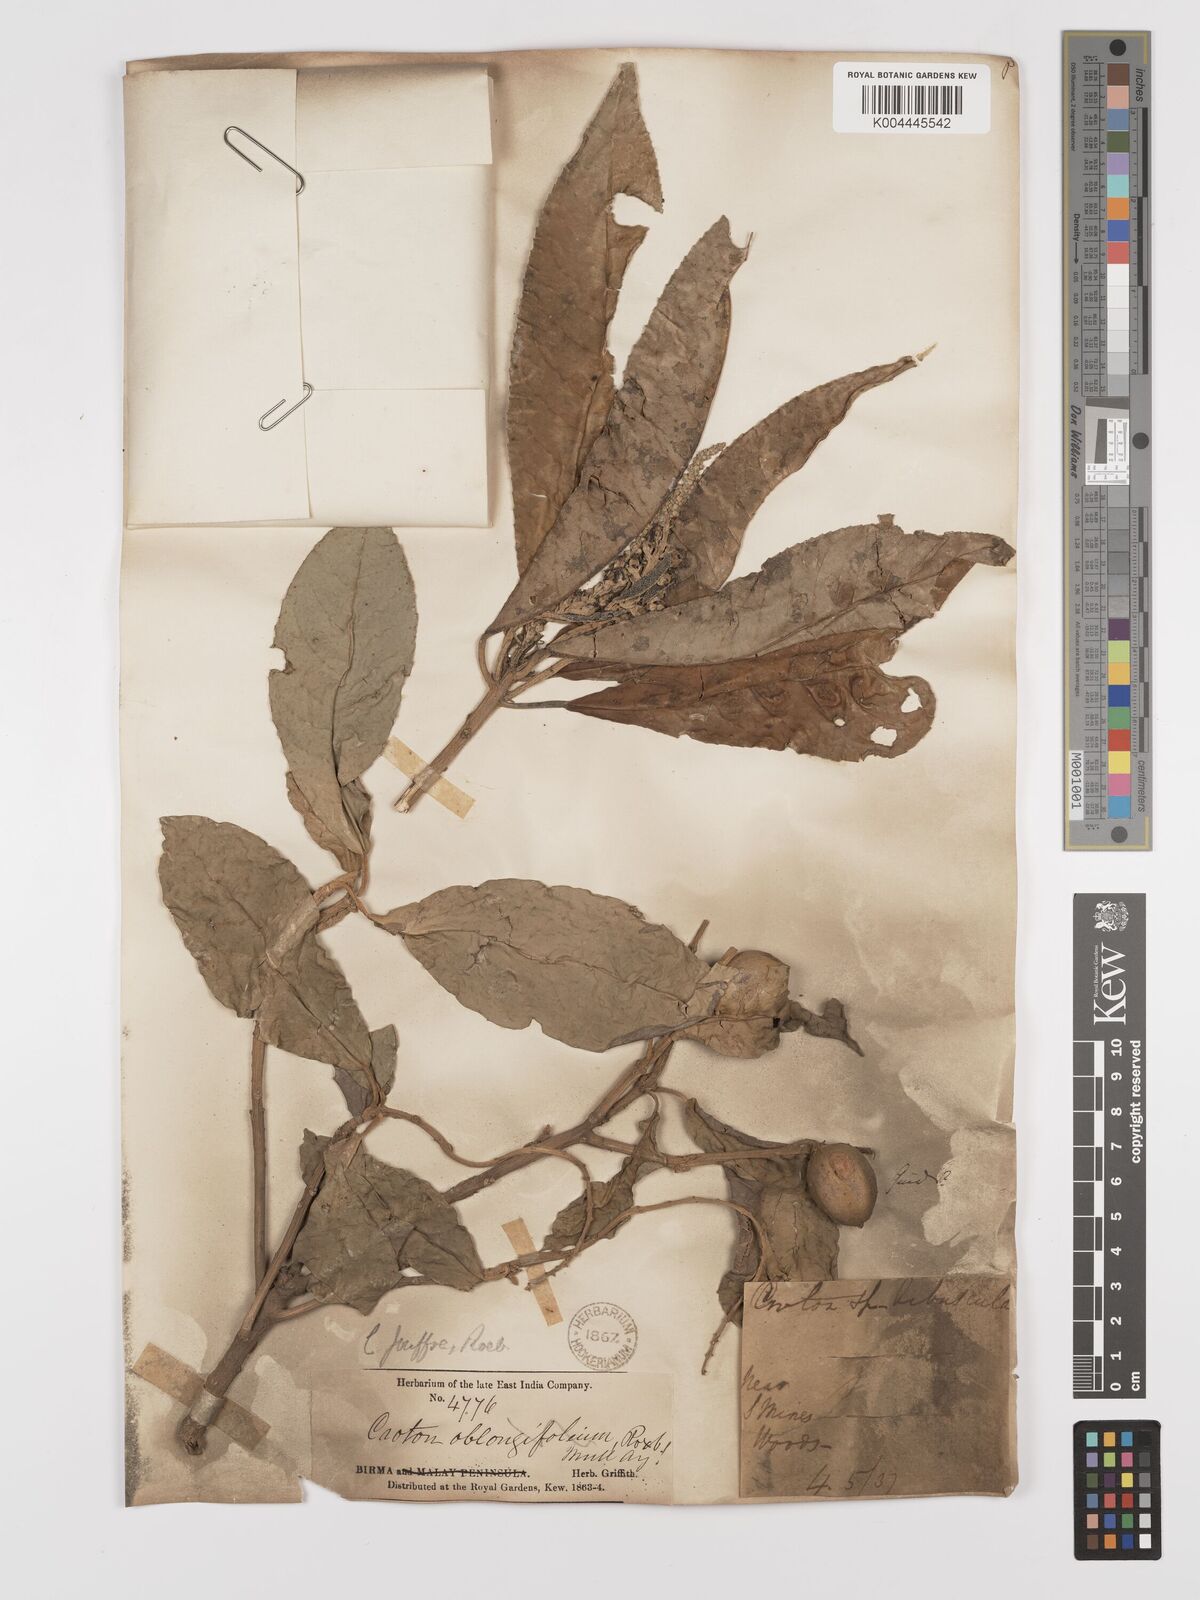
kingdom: Plantae
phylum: Tracheophyta
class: Magnoliopsida
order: Malpighiales
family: Euphorbiaceae
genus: Croton
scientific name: Croton joufra
